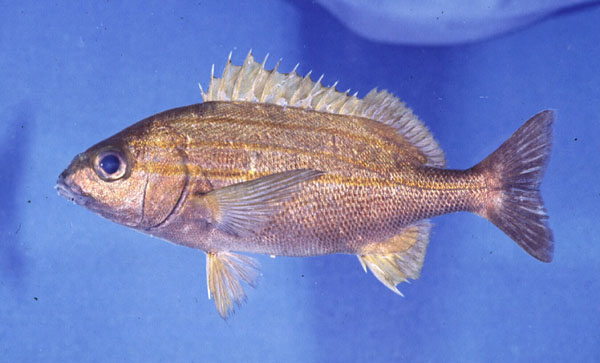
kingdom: Animalia
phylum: Chordata
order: Perciformes
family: Haemulidae
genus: Pomadasys
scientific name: Pomadasys striatus
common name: Striped grunter
